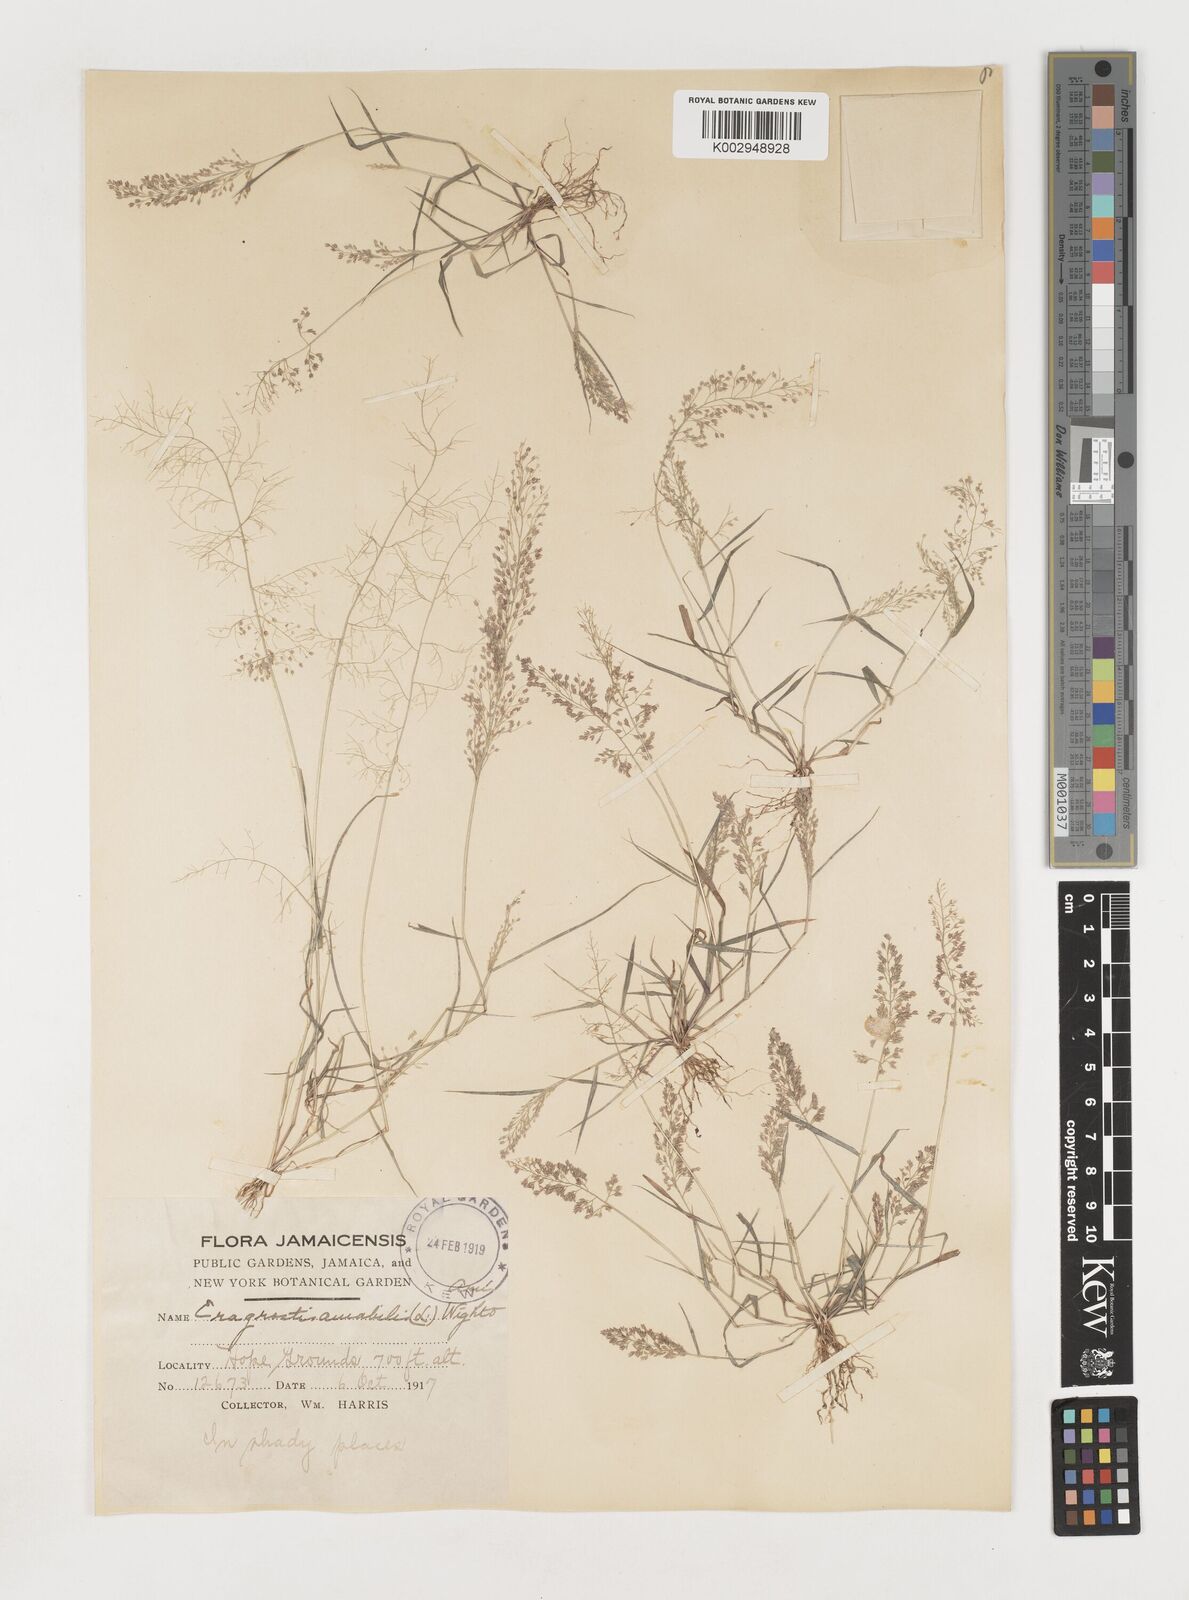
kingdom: Plantae
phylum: Tracheophyta
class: Liliopsida
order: Poales
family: Poaceae
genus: Eragrostis
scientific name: Eragrostis tenella
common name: Japanese lovegrass
